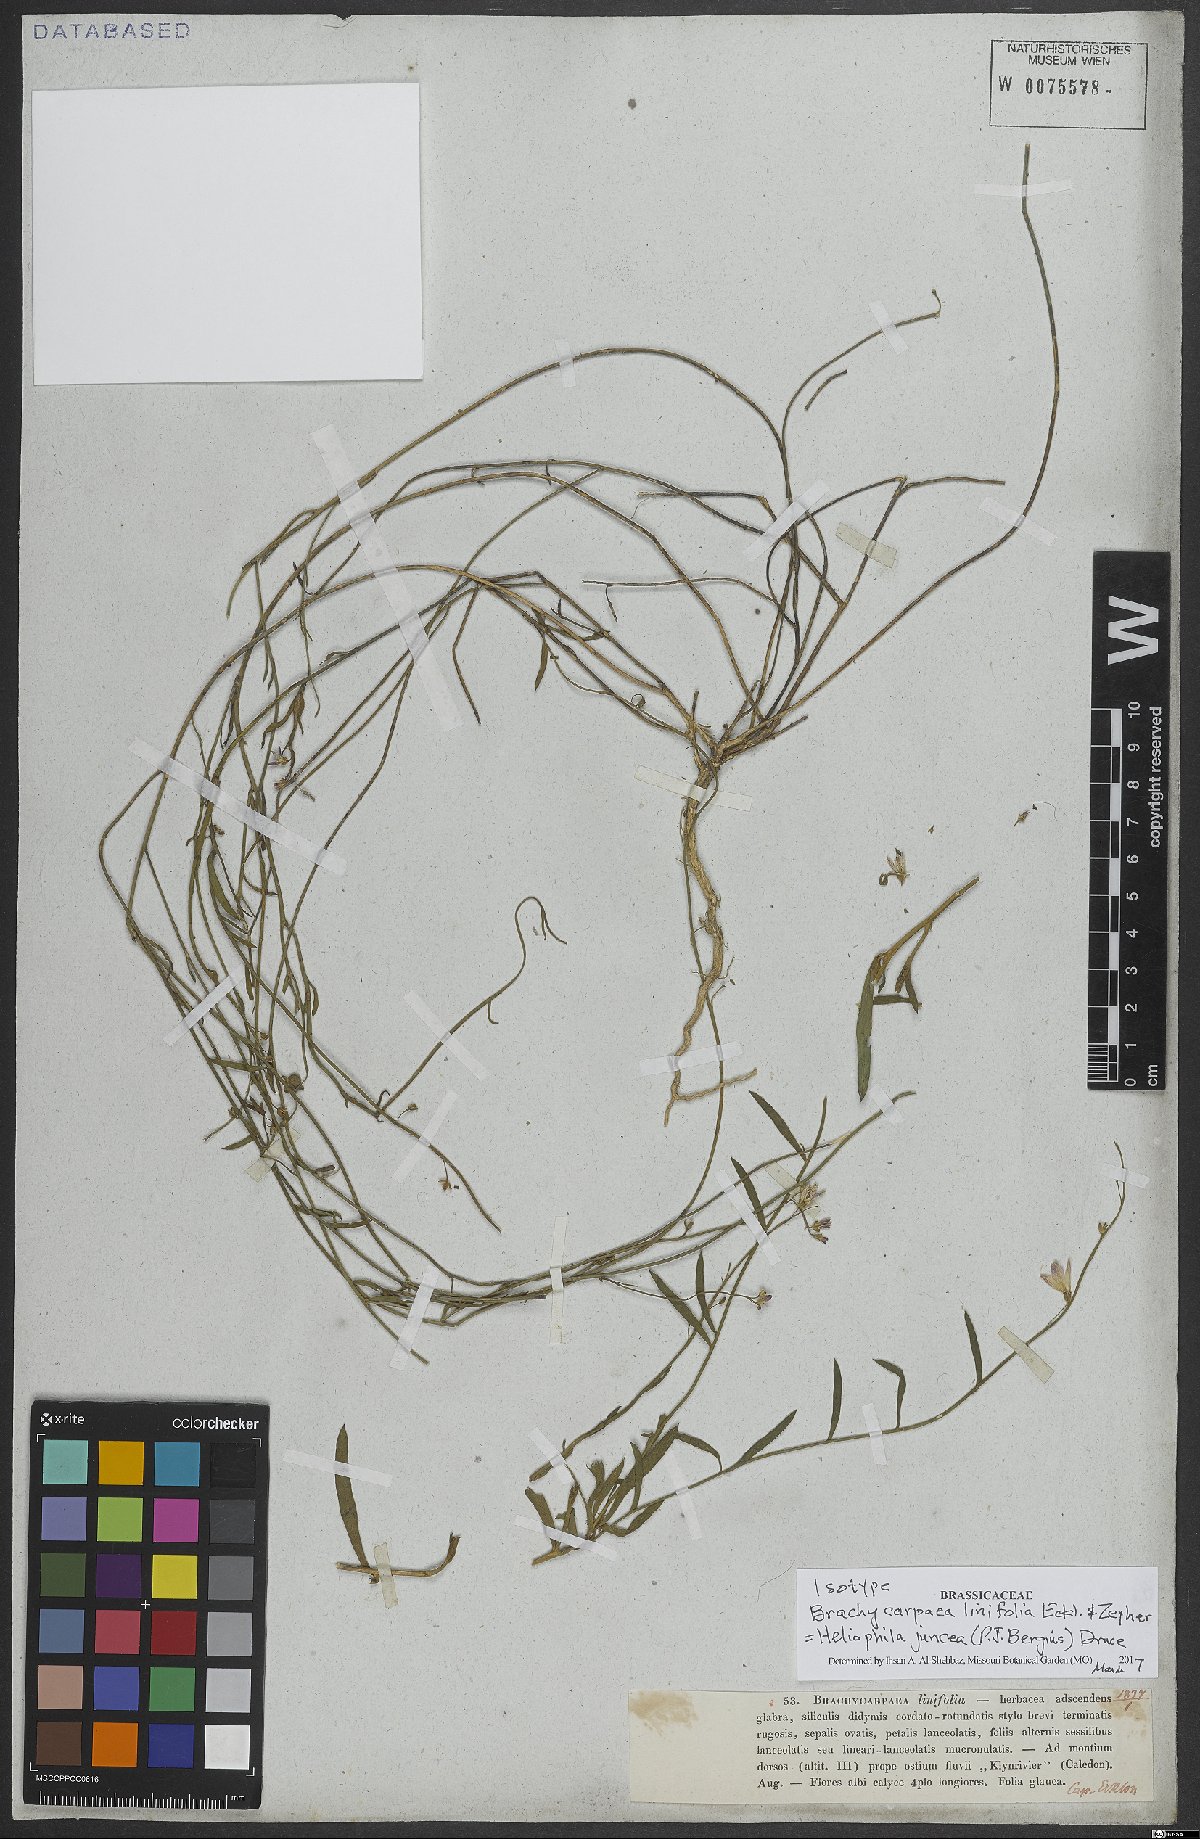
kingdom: Plantae
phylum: Tracheophyta
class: Magnoliopsida
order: Brassicales
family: Brassicaceae
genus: Heliophila
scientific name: Heliophila juncea
